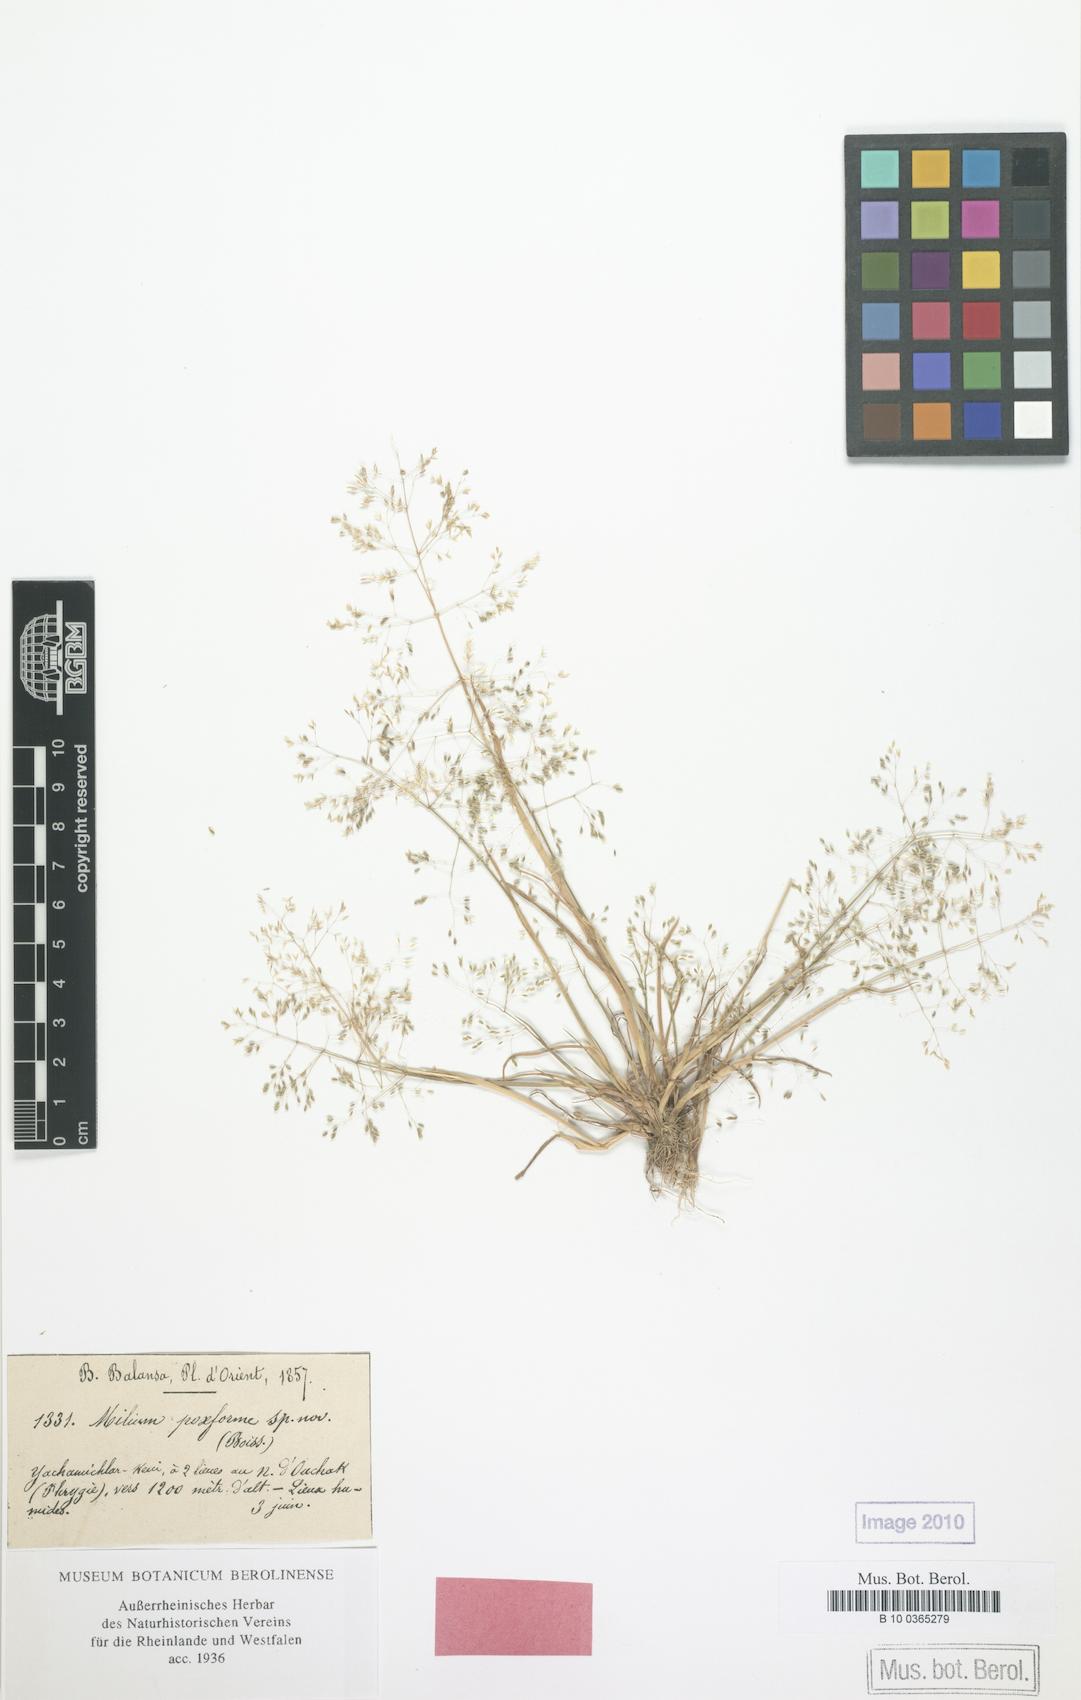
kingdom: Plantae
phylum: Tracheophyta
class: Liliopsida
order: Poales
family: Poaceae
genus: Colpodium
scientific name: Colpodium pisidicum
